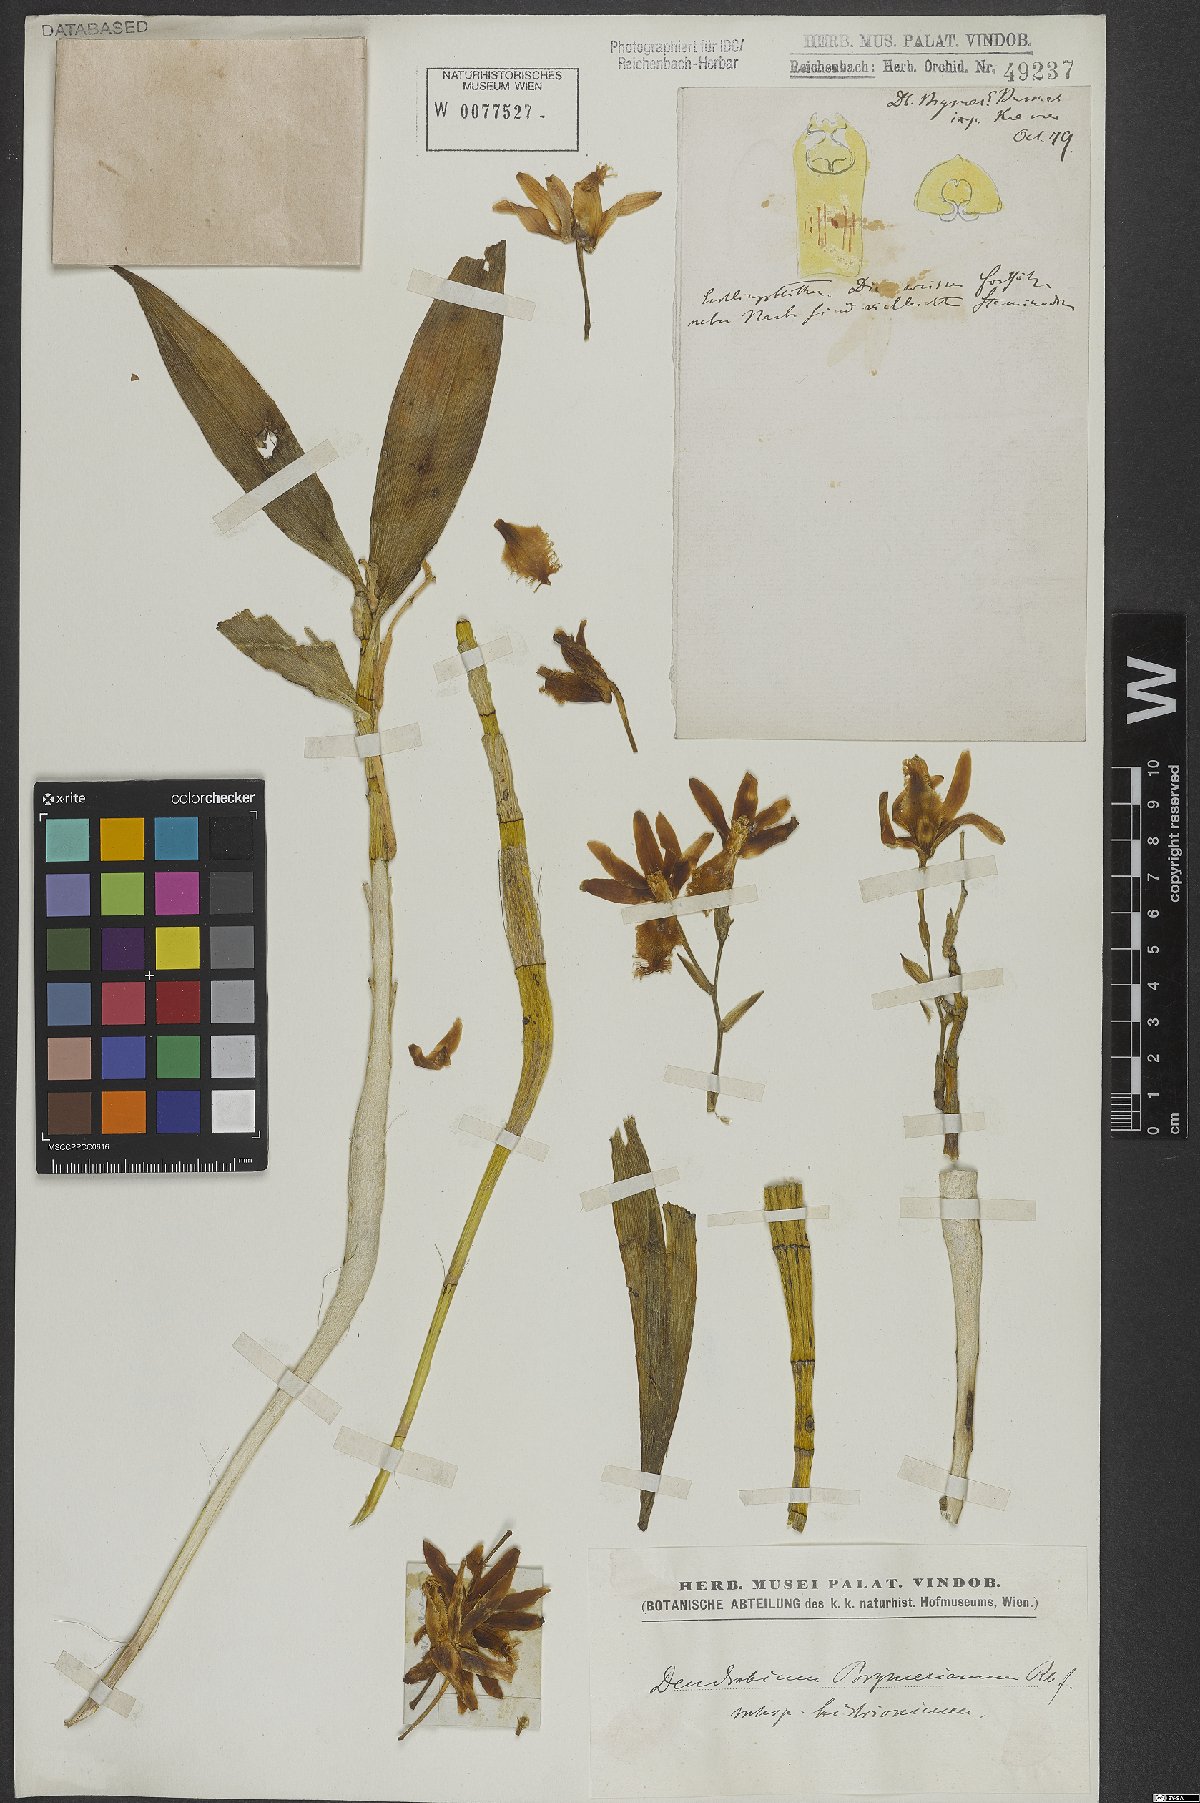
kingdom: Plantae
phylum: Tracheophyta
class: Liliopsida
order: Asparagales
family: Orchidaceae
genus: Dendrobium
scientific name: Dendrobium histrionicum
